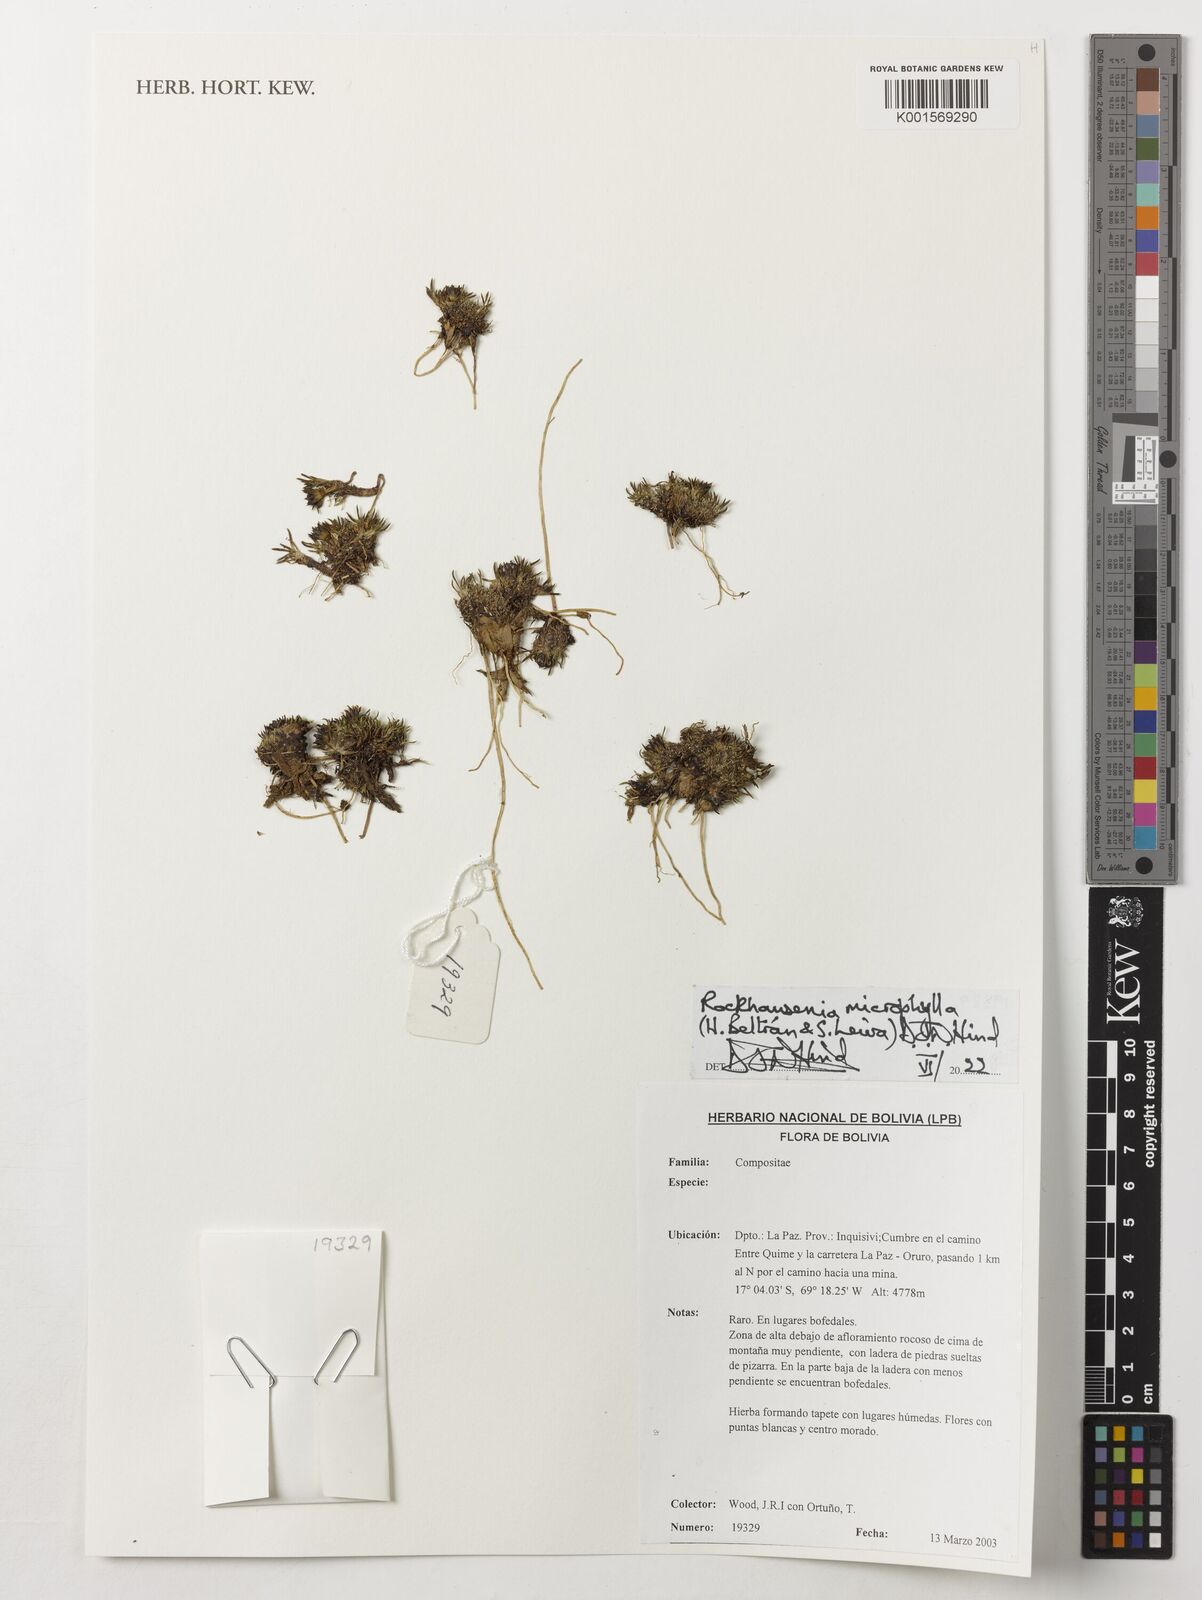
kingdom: Plantae
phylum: Tracheophyta
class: Magnoliopsida
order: Asterales
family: Asteraceae
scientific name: Asteraceae
